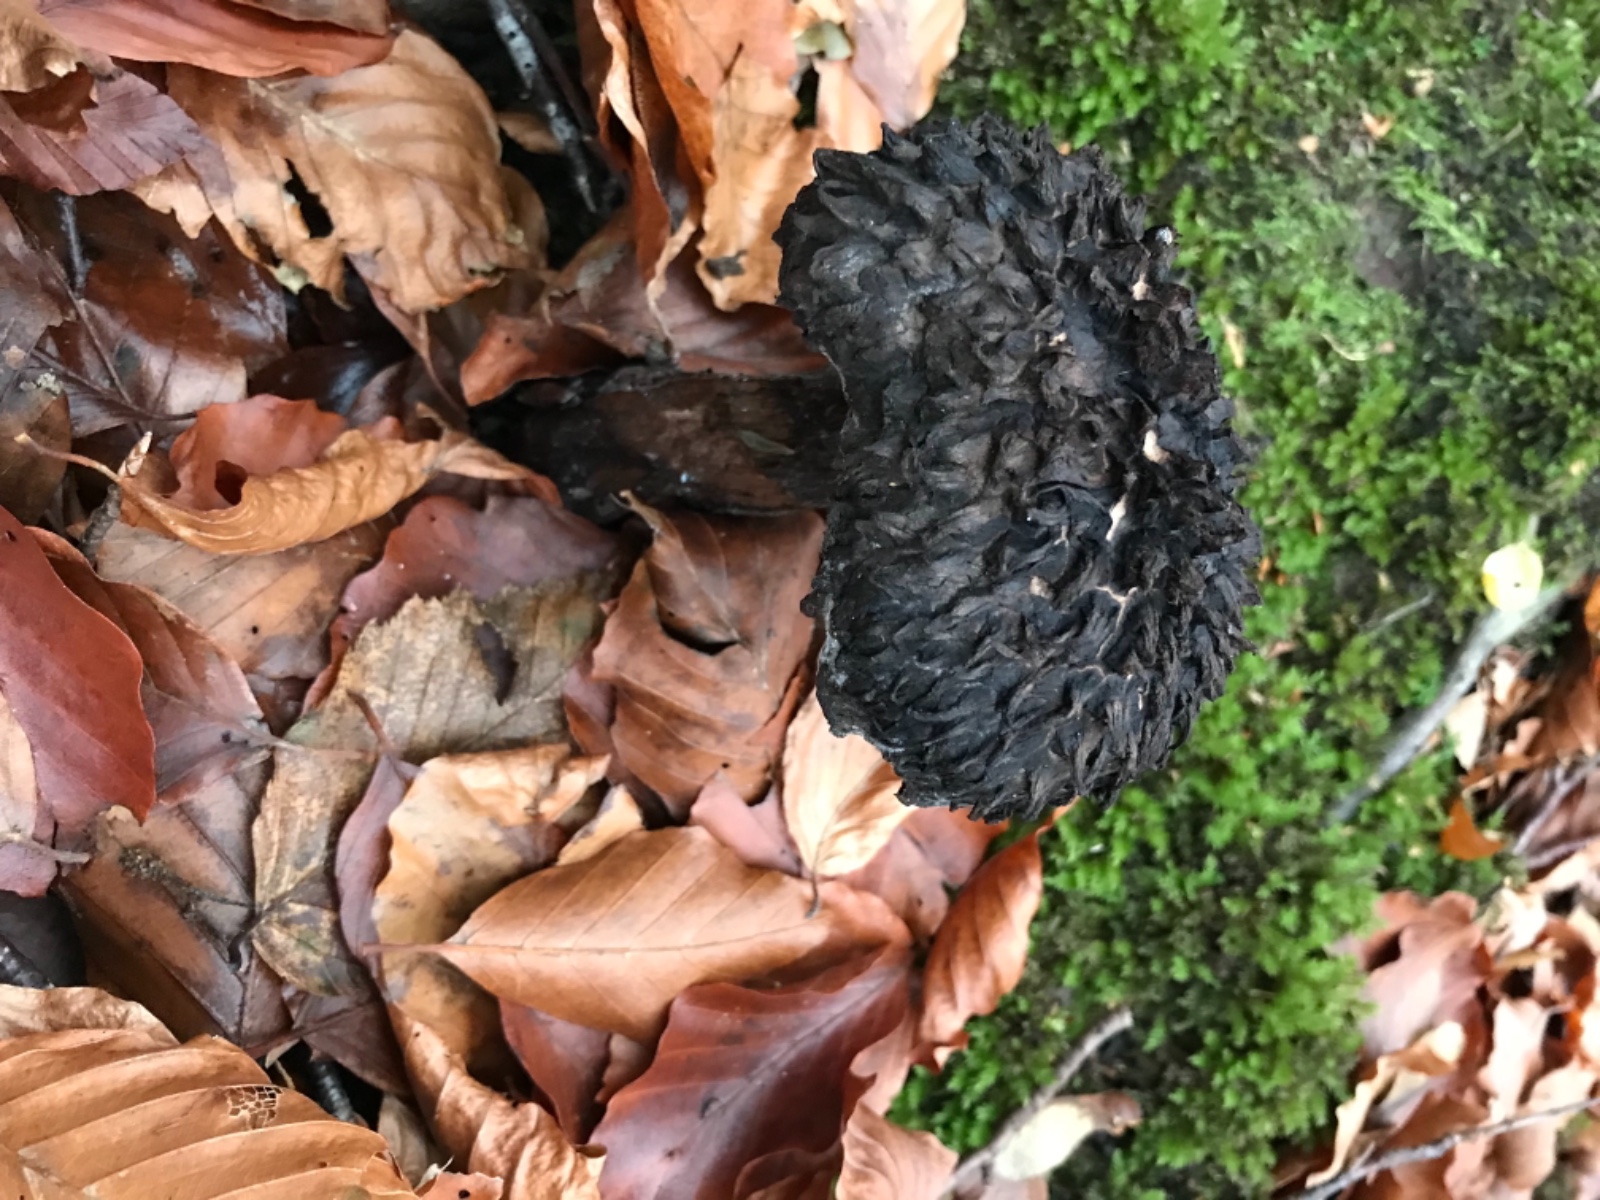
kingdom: Fungi
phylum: Basidiomycota
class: Agaricomycetes
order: Boletales
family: Boletaceae
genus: Strobilomyces
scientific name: Strobilomyces strobilaceus
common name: koglerørhat
